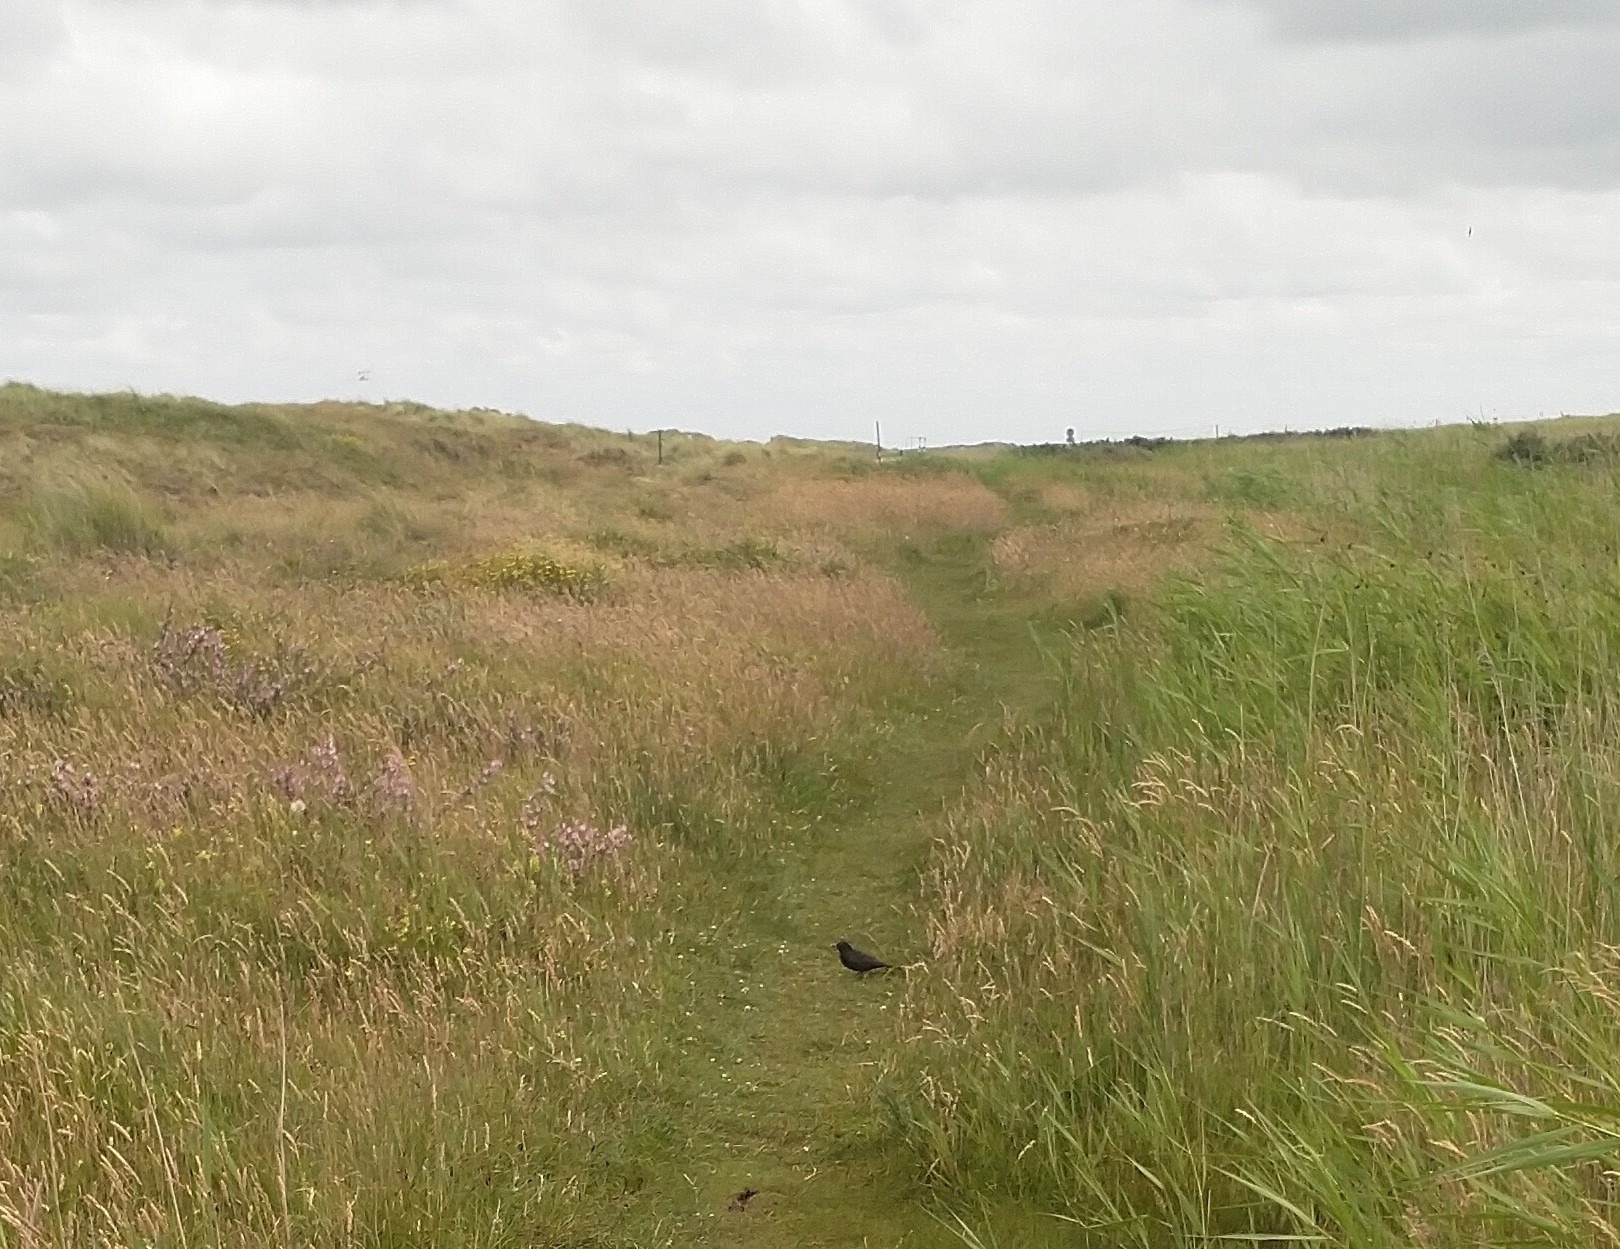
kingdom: Animalia
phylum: Chordata
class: Aves
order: Passeriformes
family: Turdidae
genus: Turdus
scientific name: Turdus merula
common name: Solsort
